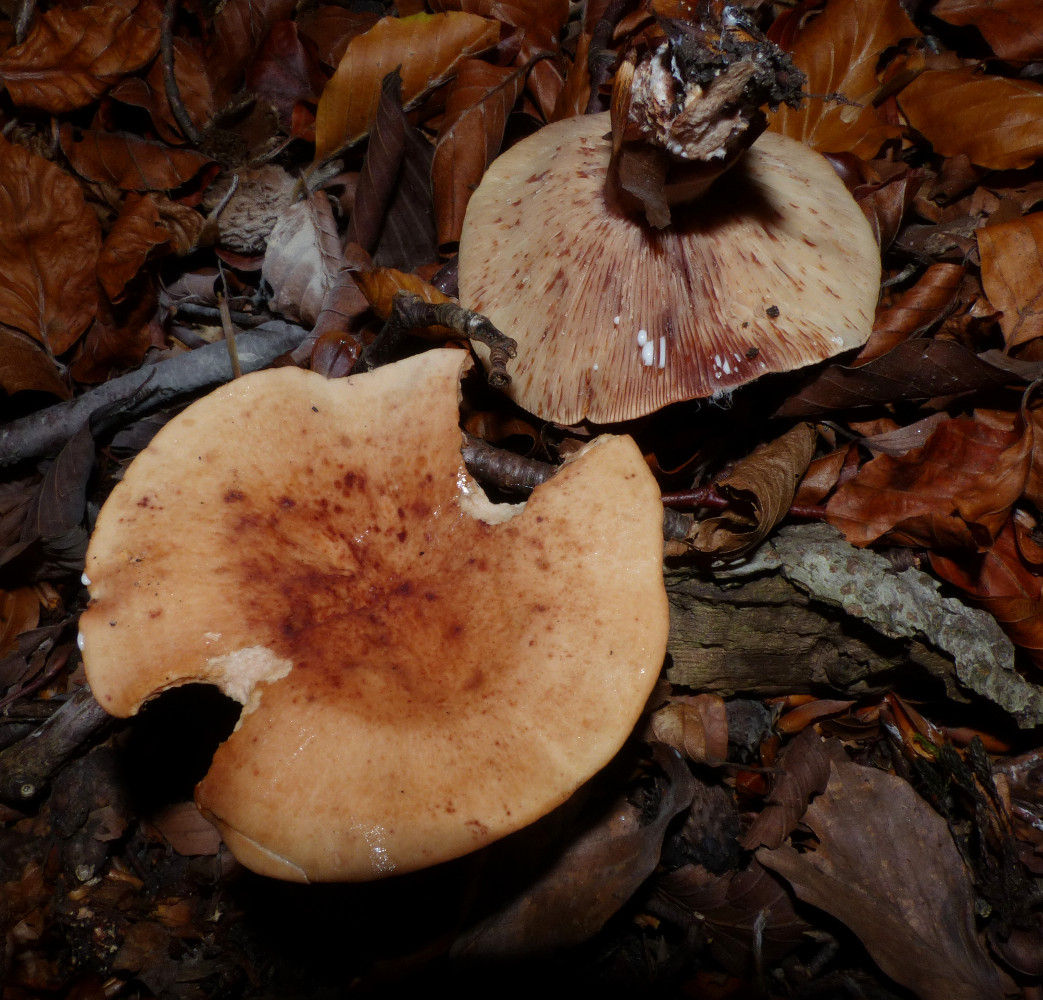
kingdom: Fungi
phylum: Basidiomycota
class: Agaricomycetes
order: Russulales
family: Russulaceae
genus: Lactarius
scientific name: Lactarius rubrocinctus
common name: halsbånd-mælkehat
